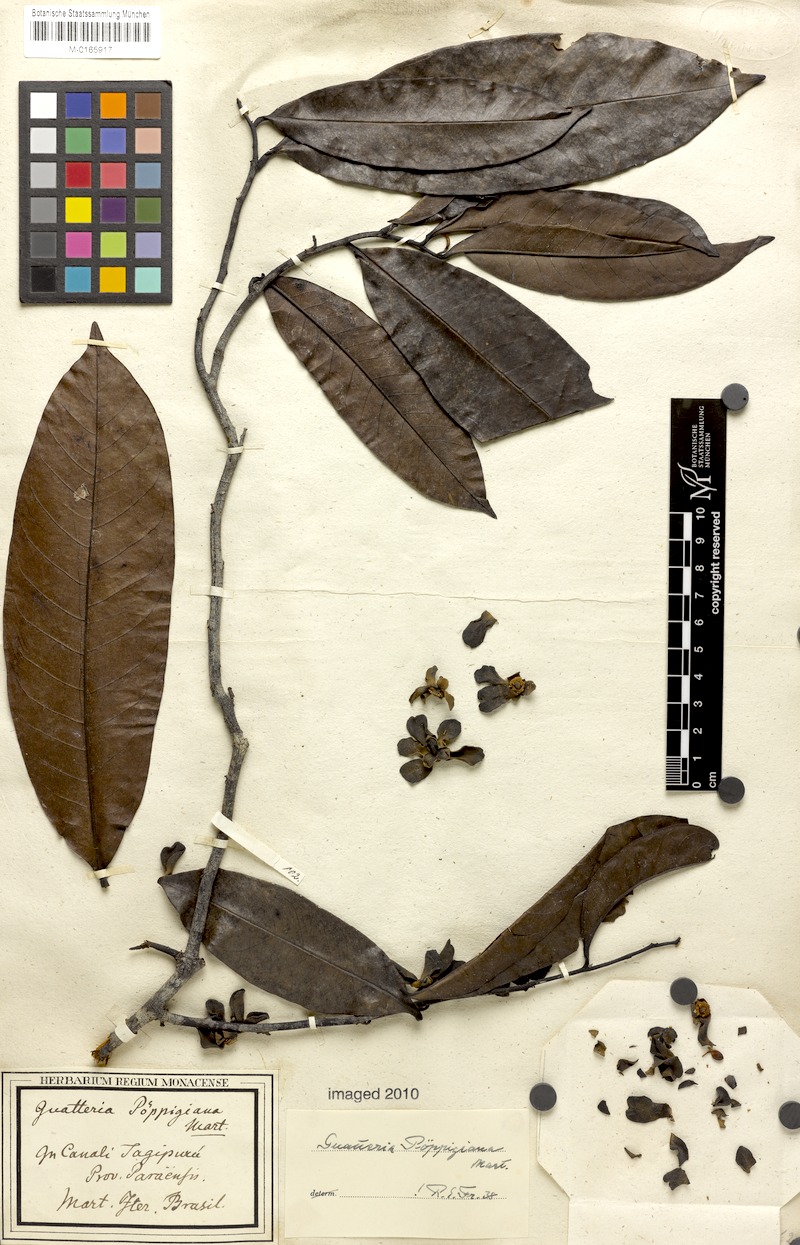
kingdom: Plantae
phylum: Tracheophyta
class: Magnoliopsida
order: Magnoliales
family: Annonaceae
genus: Guatteria
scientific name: Guatteria poeppigiana
